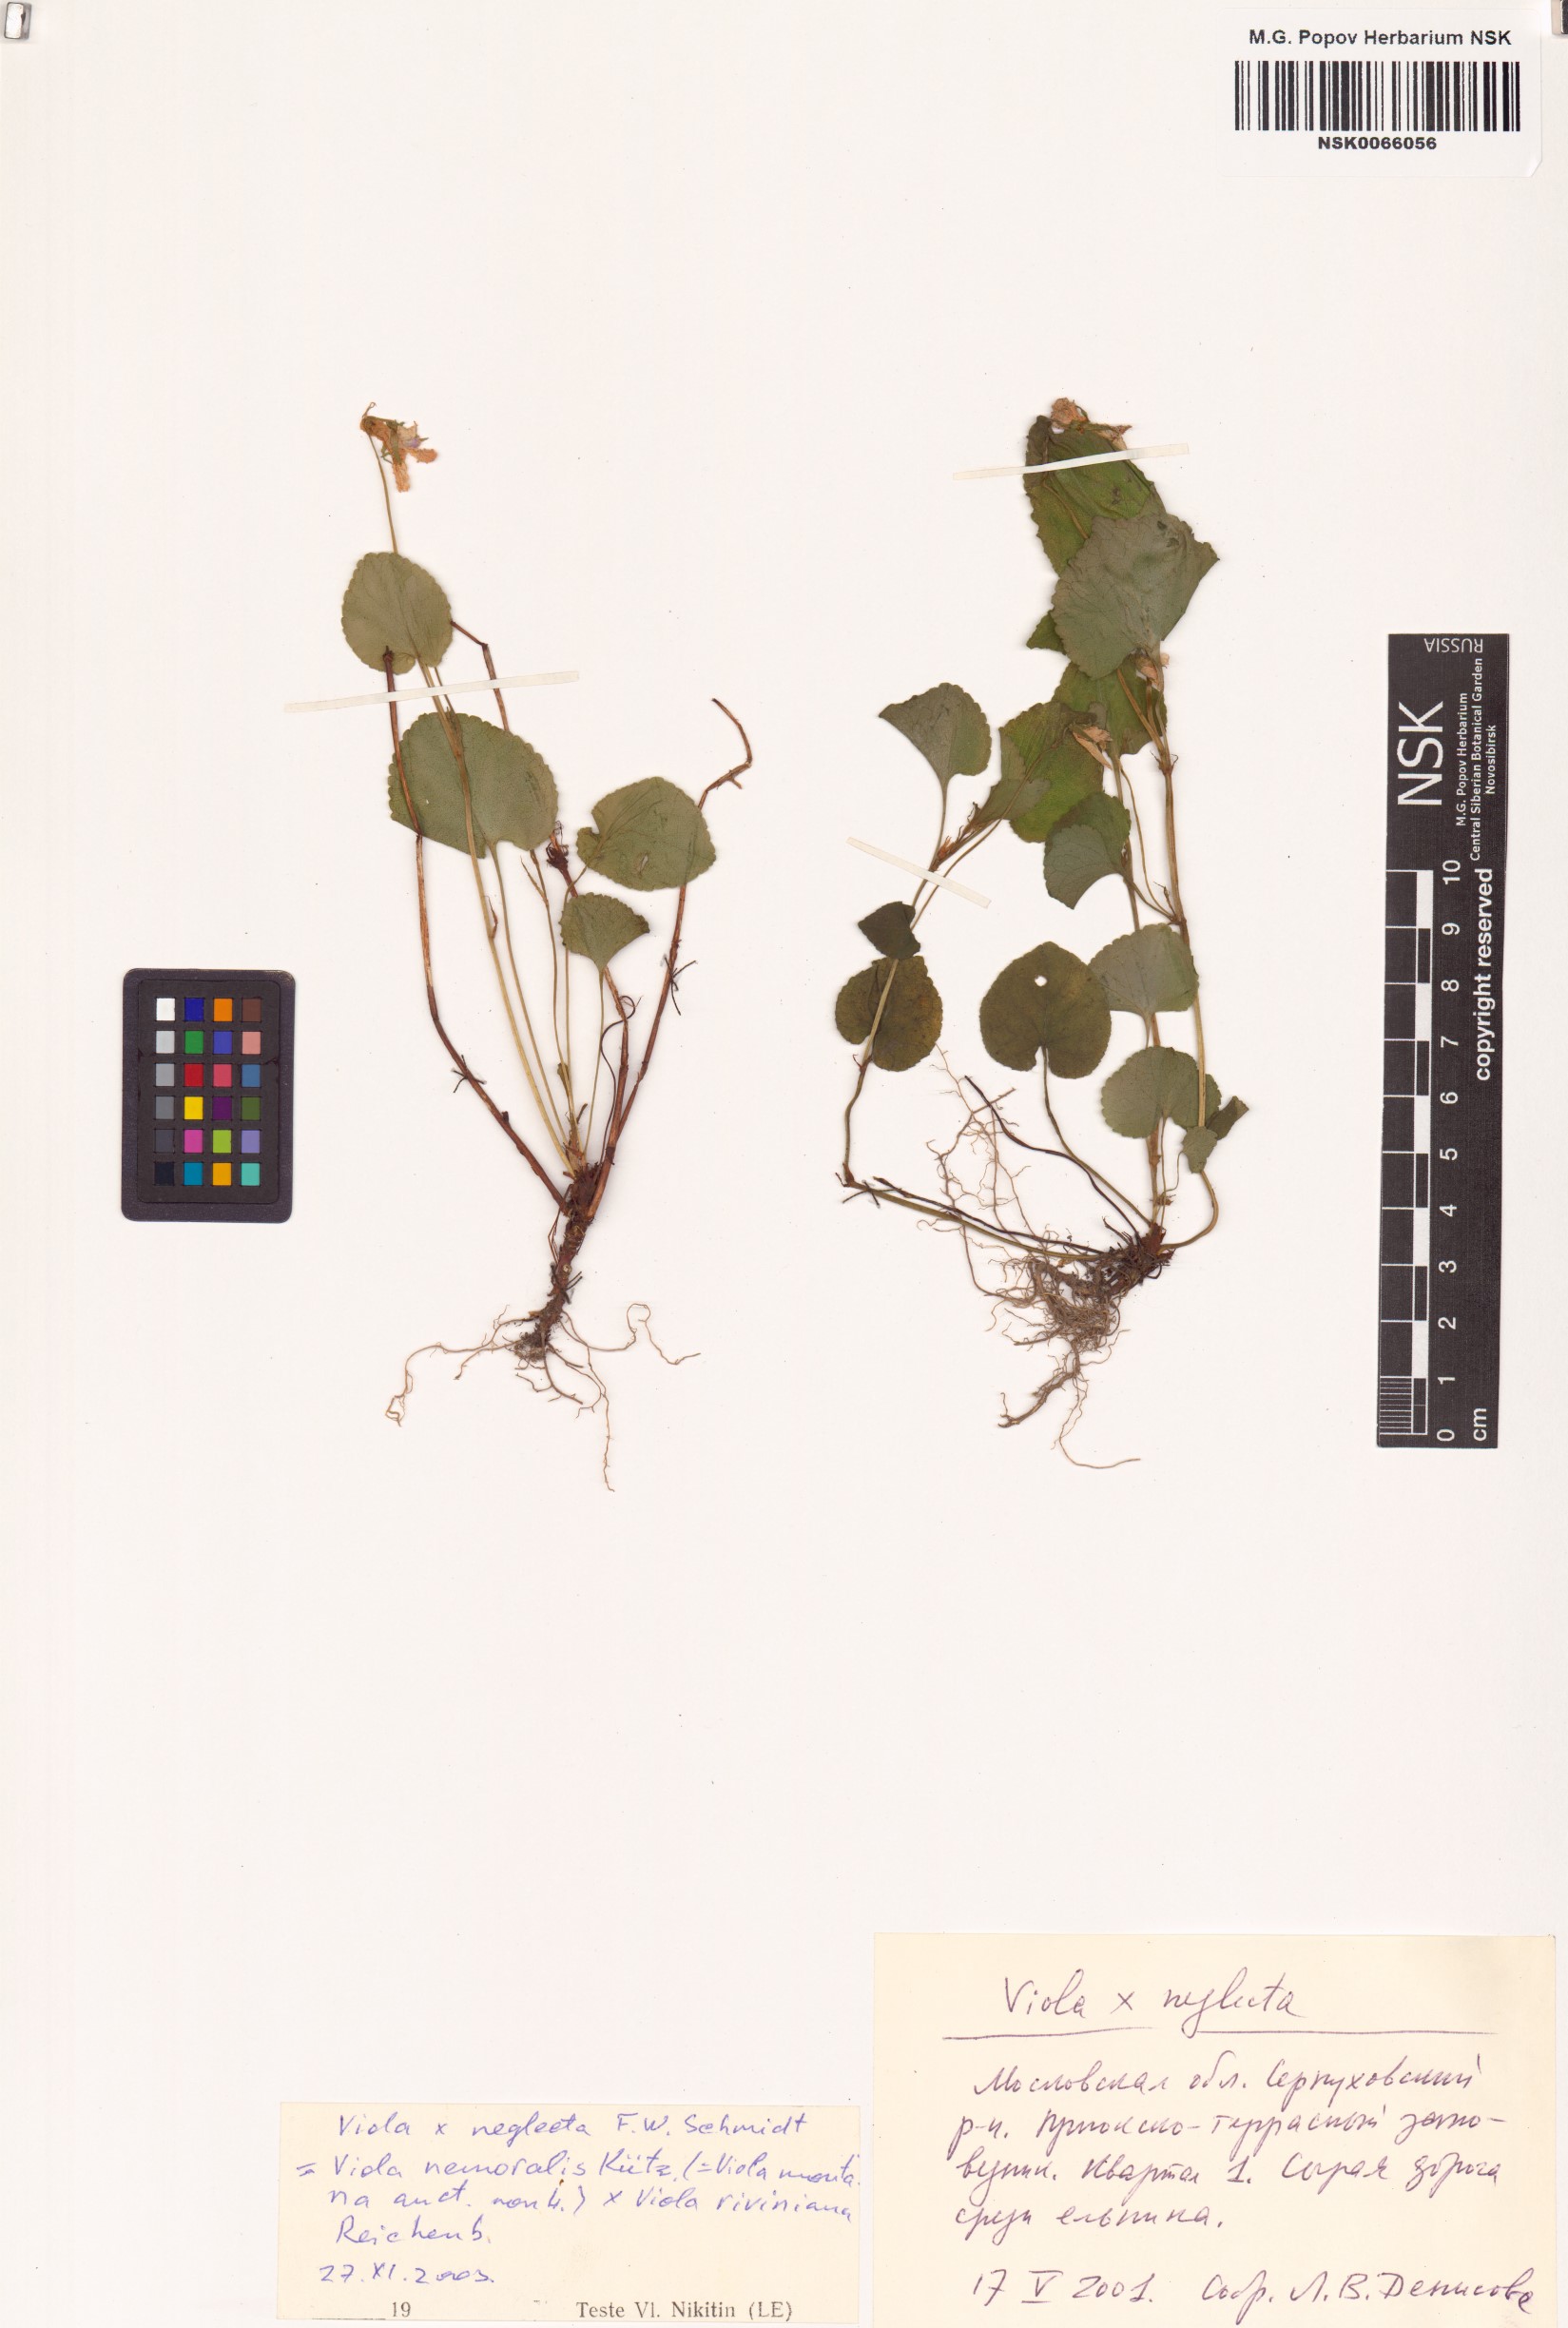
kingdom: Plantae
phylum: Tracheophyta
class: Magnoliopsida
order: Malpighiales
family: Violaceae
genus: Viola
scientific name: Viola neglecta
